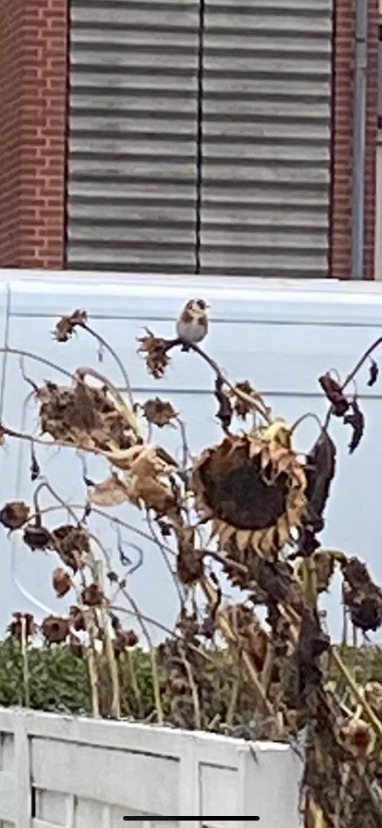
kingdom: Animalia
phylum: Chordata
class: Aves
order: Passeriformes
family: Fringillidae
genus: Carduelis
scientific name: Carduelis carduelis
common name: Stillits
